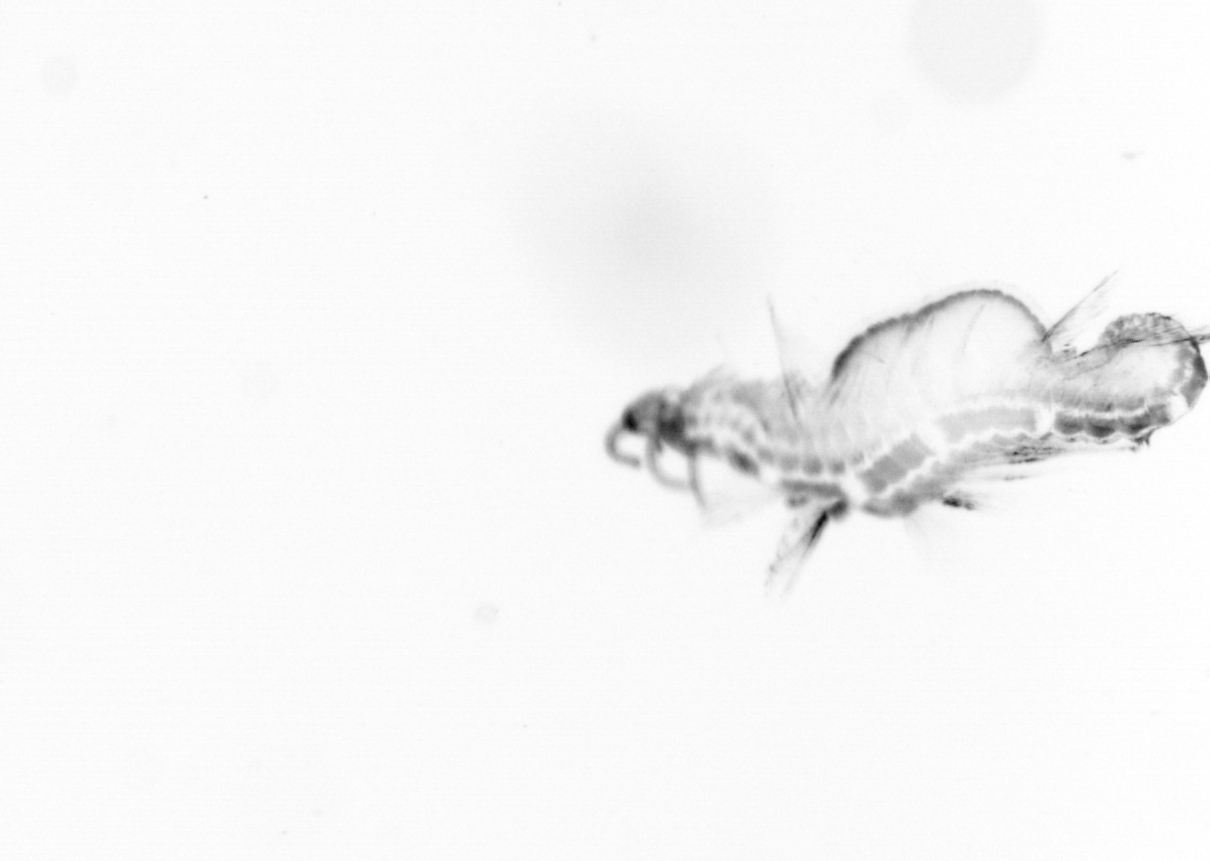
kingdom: Animalia
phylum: Annelida
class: Polychaeta
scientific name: Polychaeta
